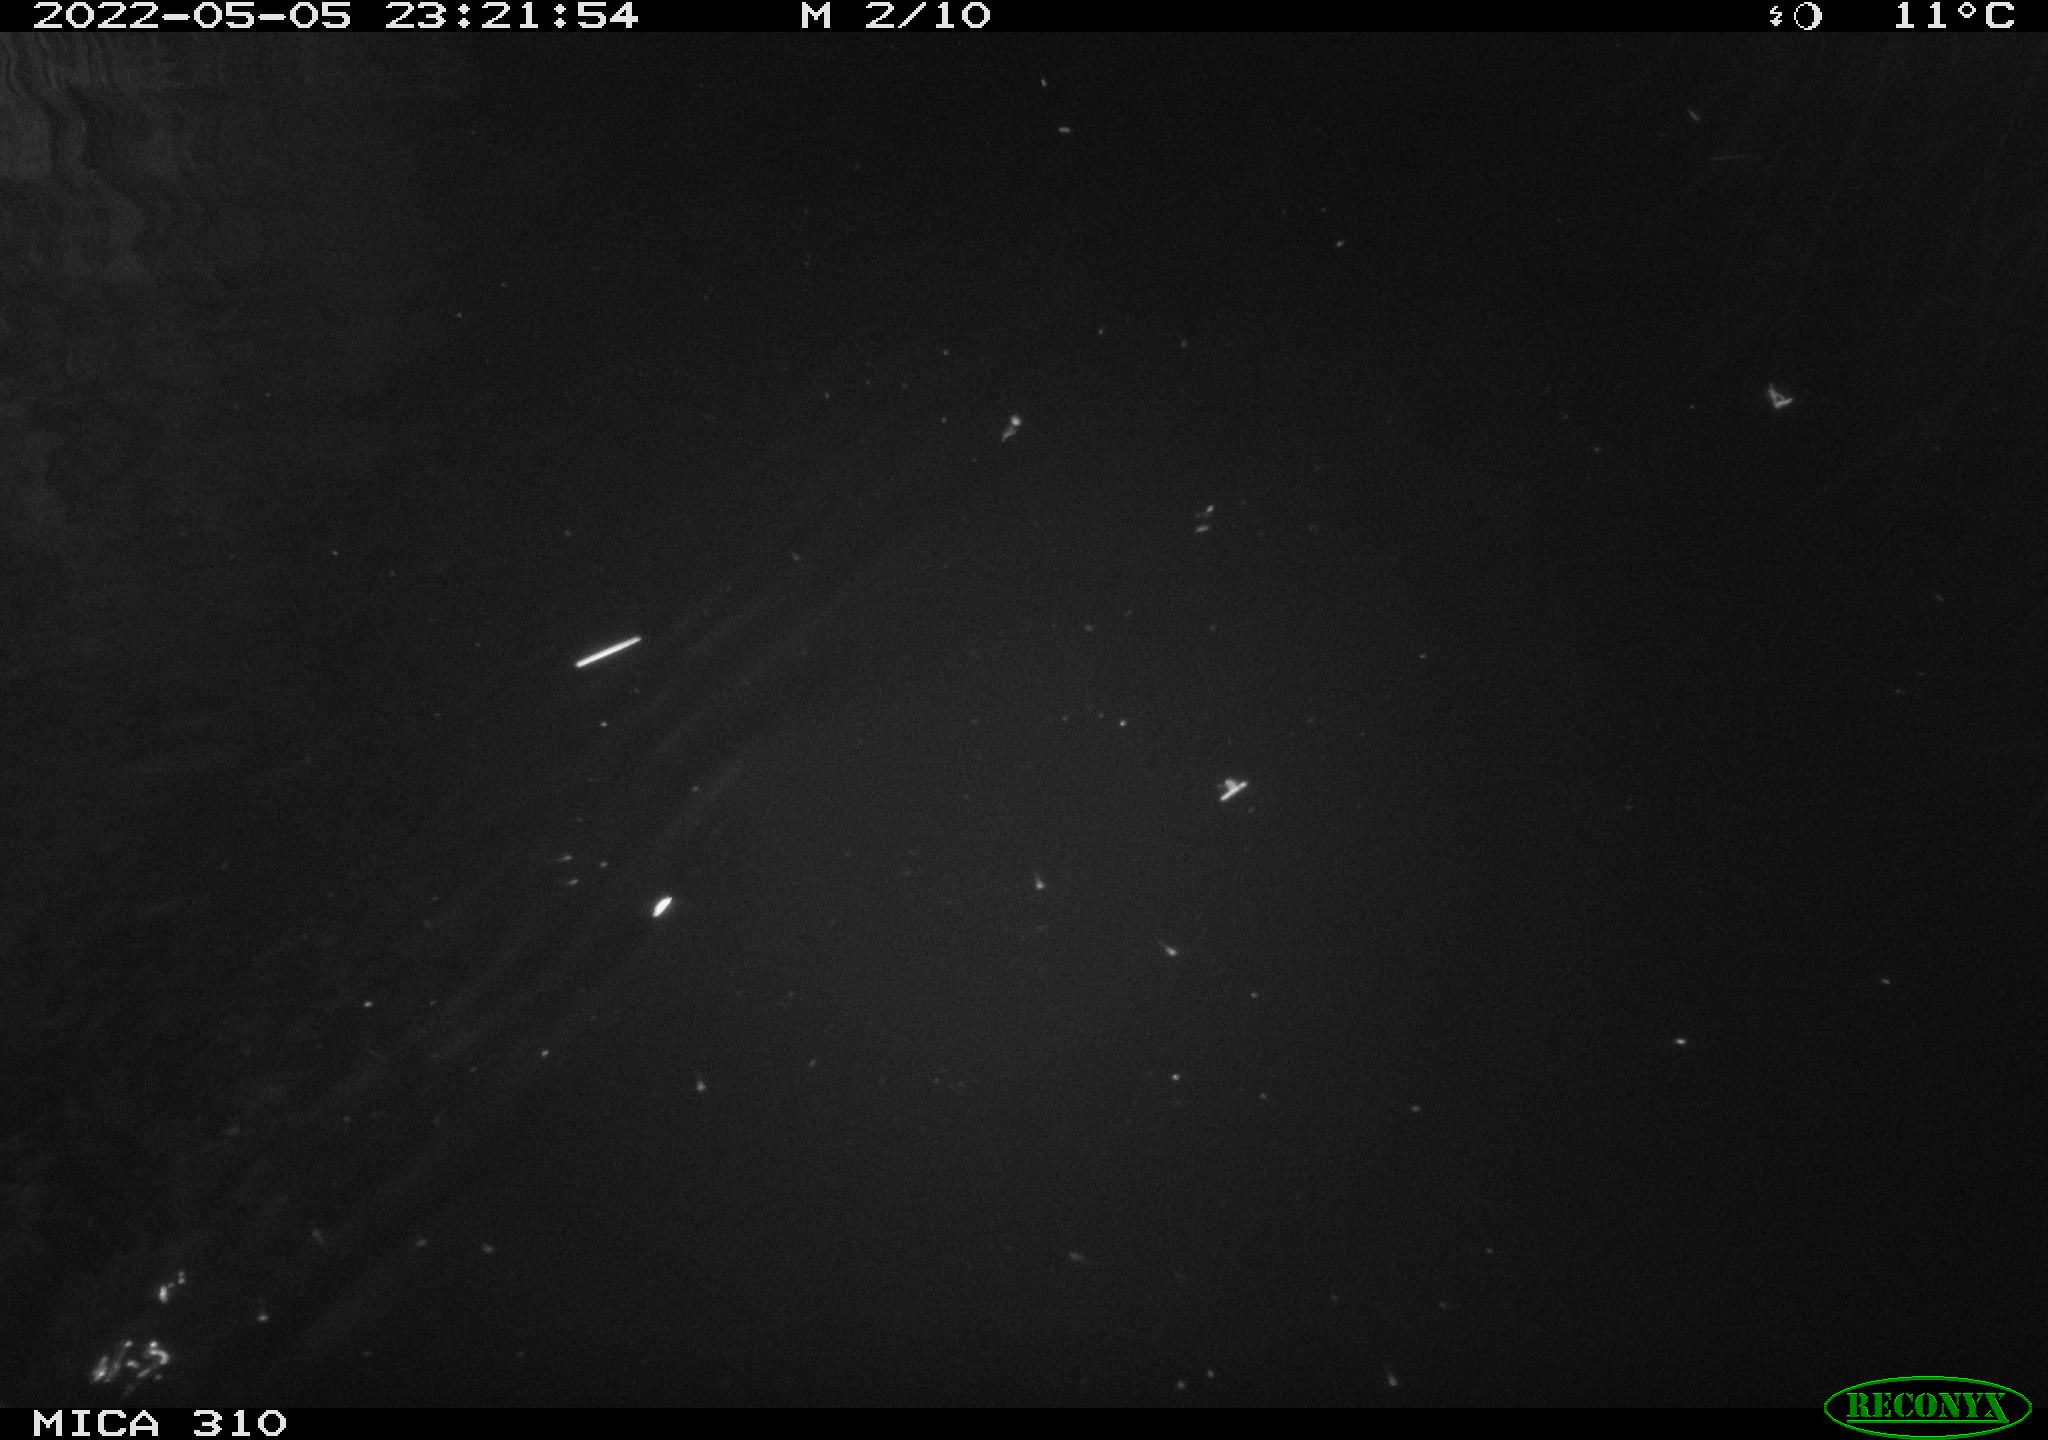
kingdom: Animalia
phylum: Chordata
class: Aves
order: Anseriformes
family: Anatidae
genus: Anas
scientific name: Anas platyrhynchos
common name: Mallard
